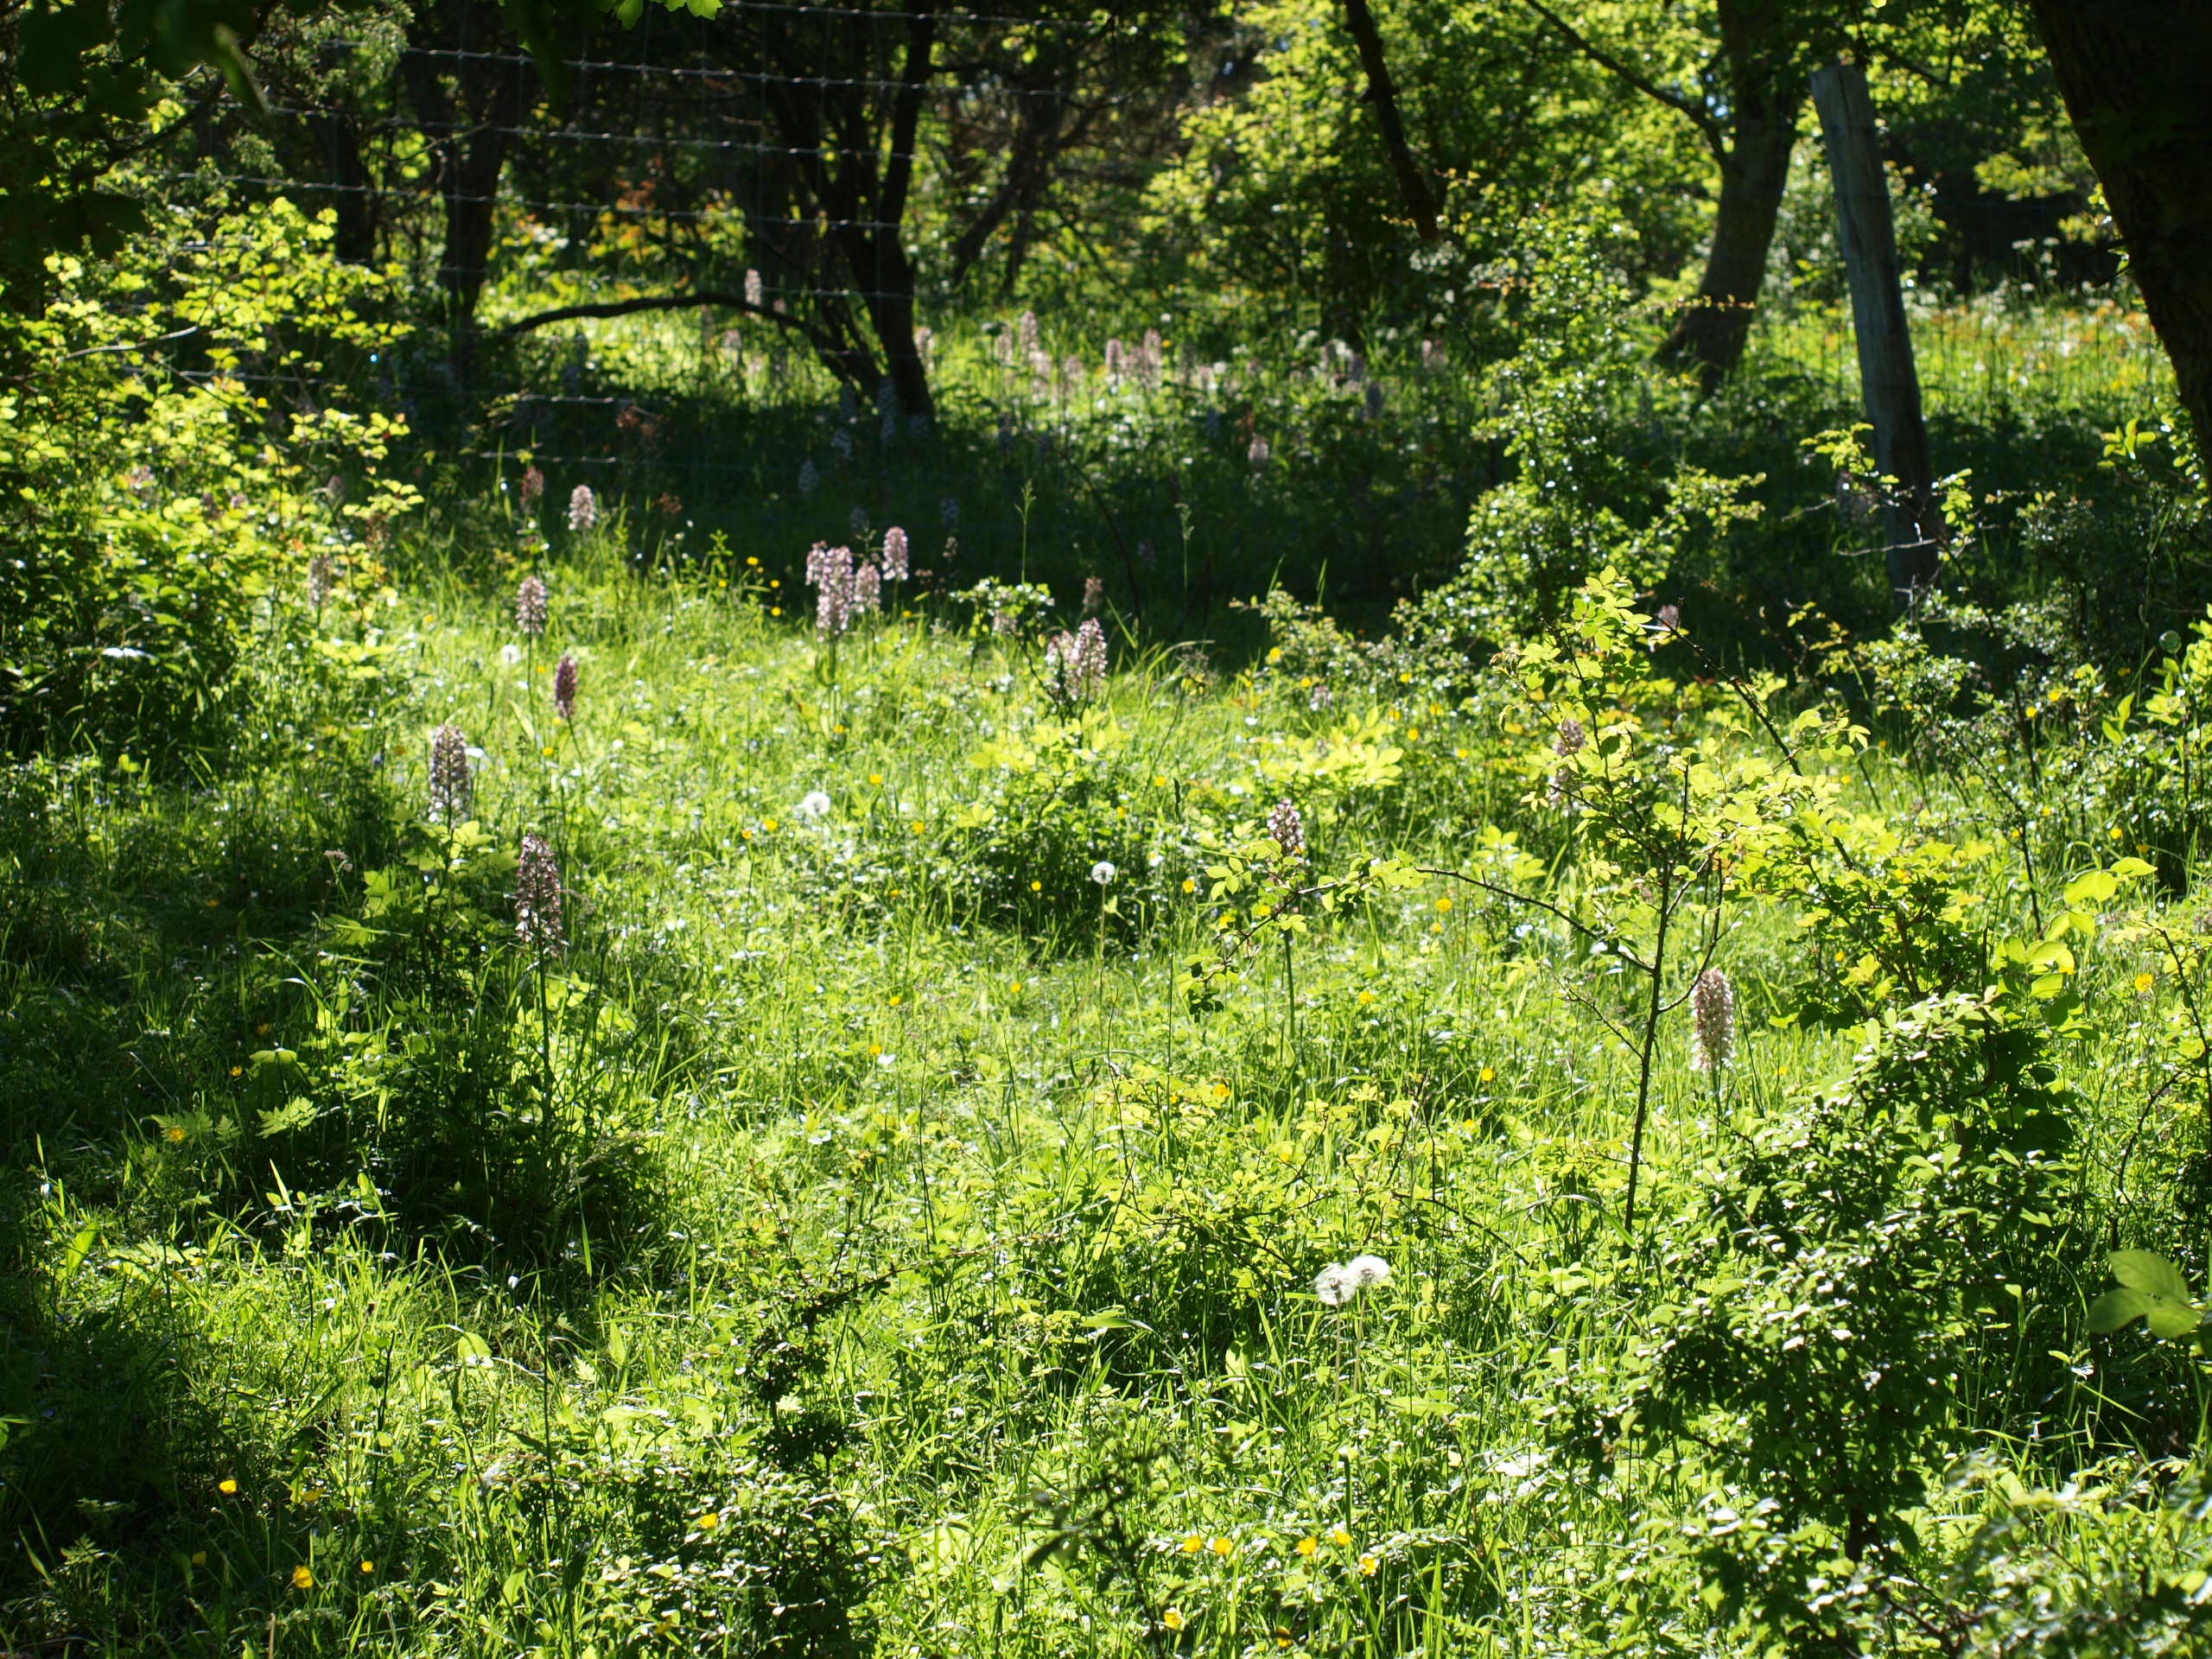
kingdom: Plantae
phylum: Tracheophyta
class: Liliopsida
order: Asparagales
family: Orchidaceae
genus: Orchis
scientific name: Orchis purpurea
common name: Stor gøgeurt
